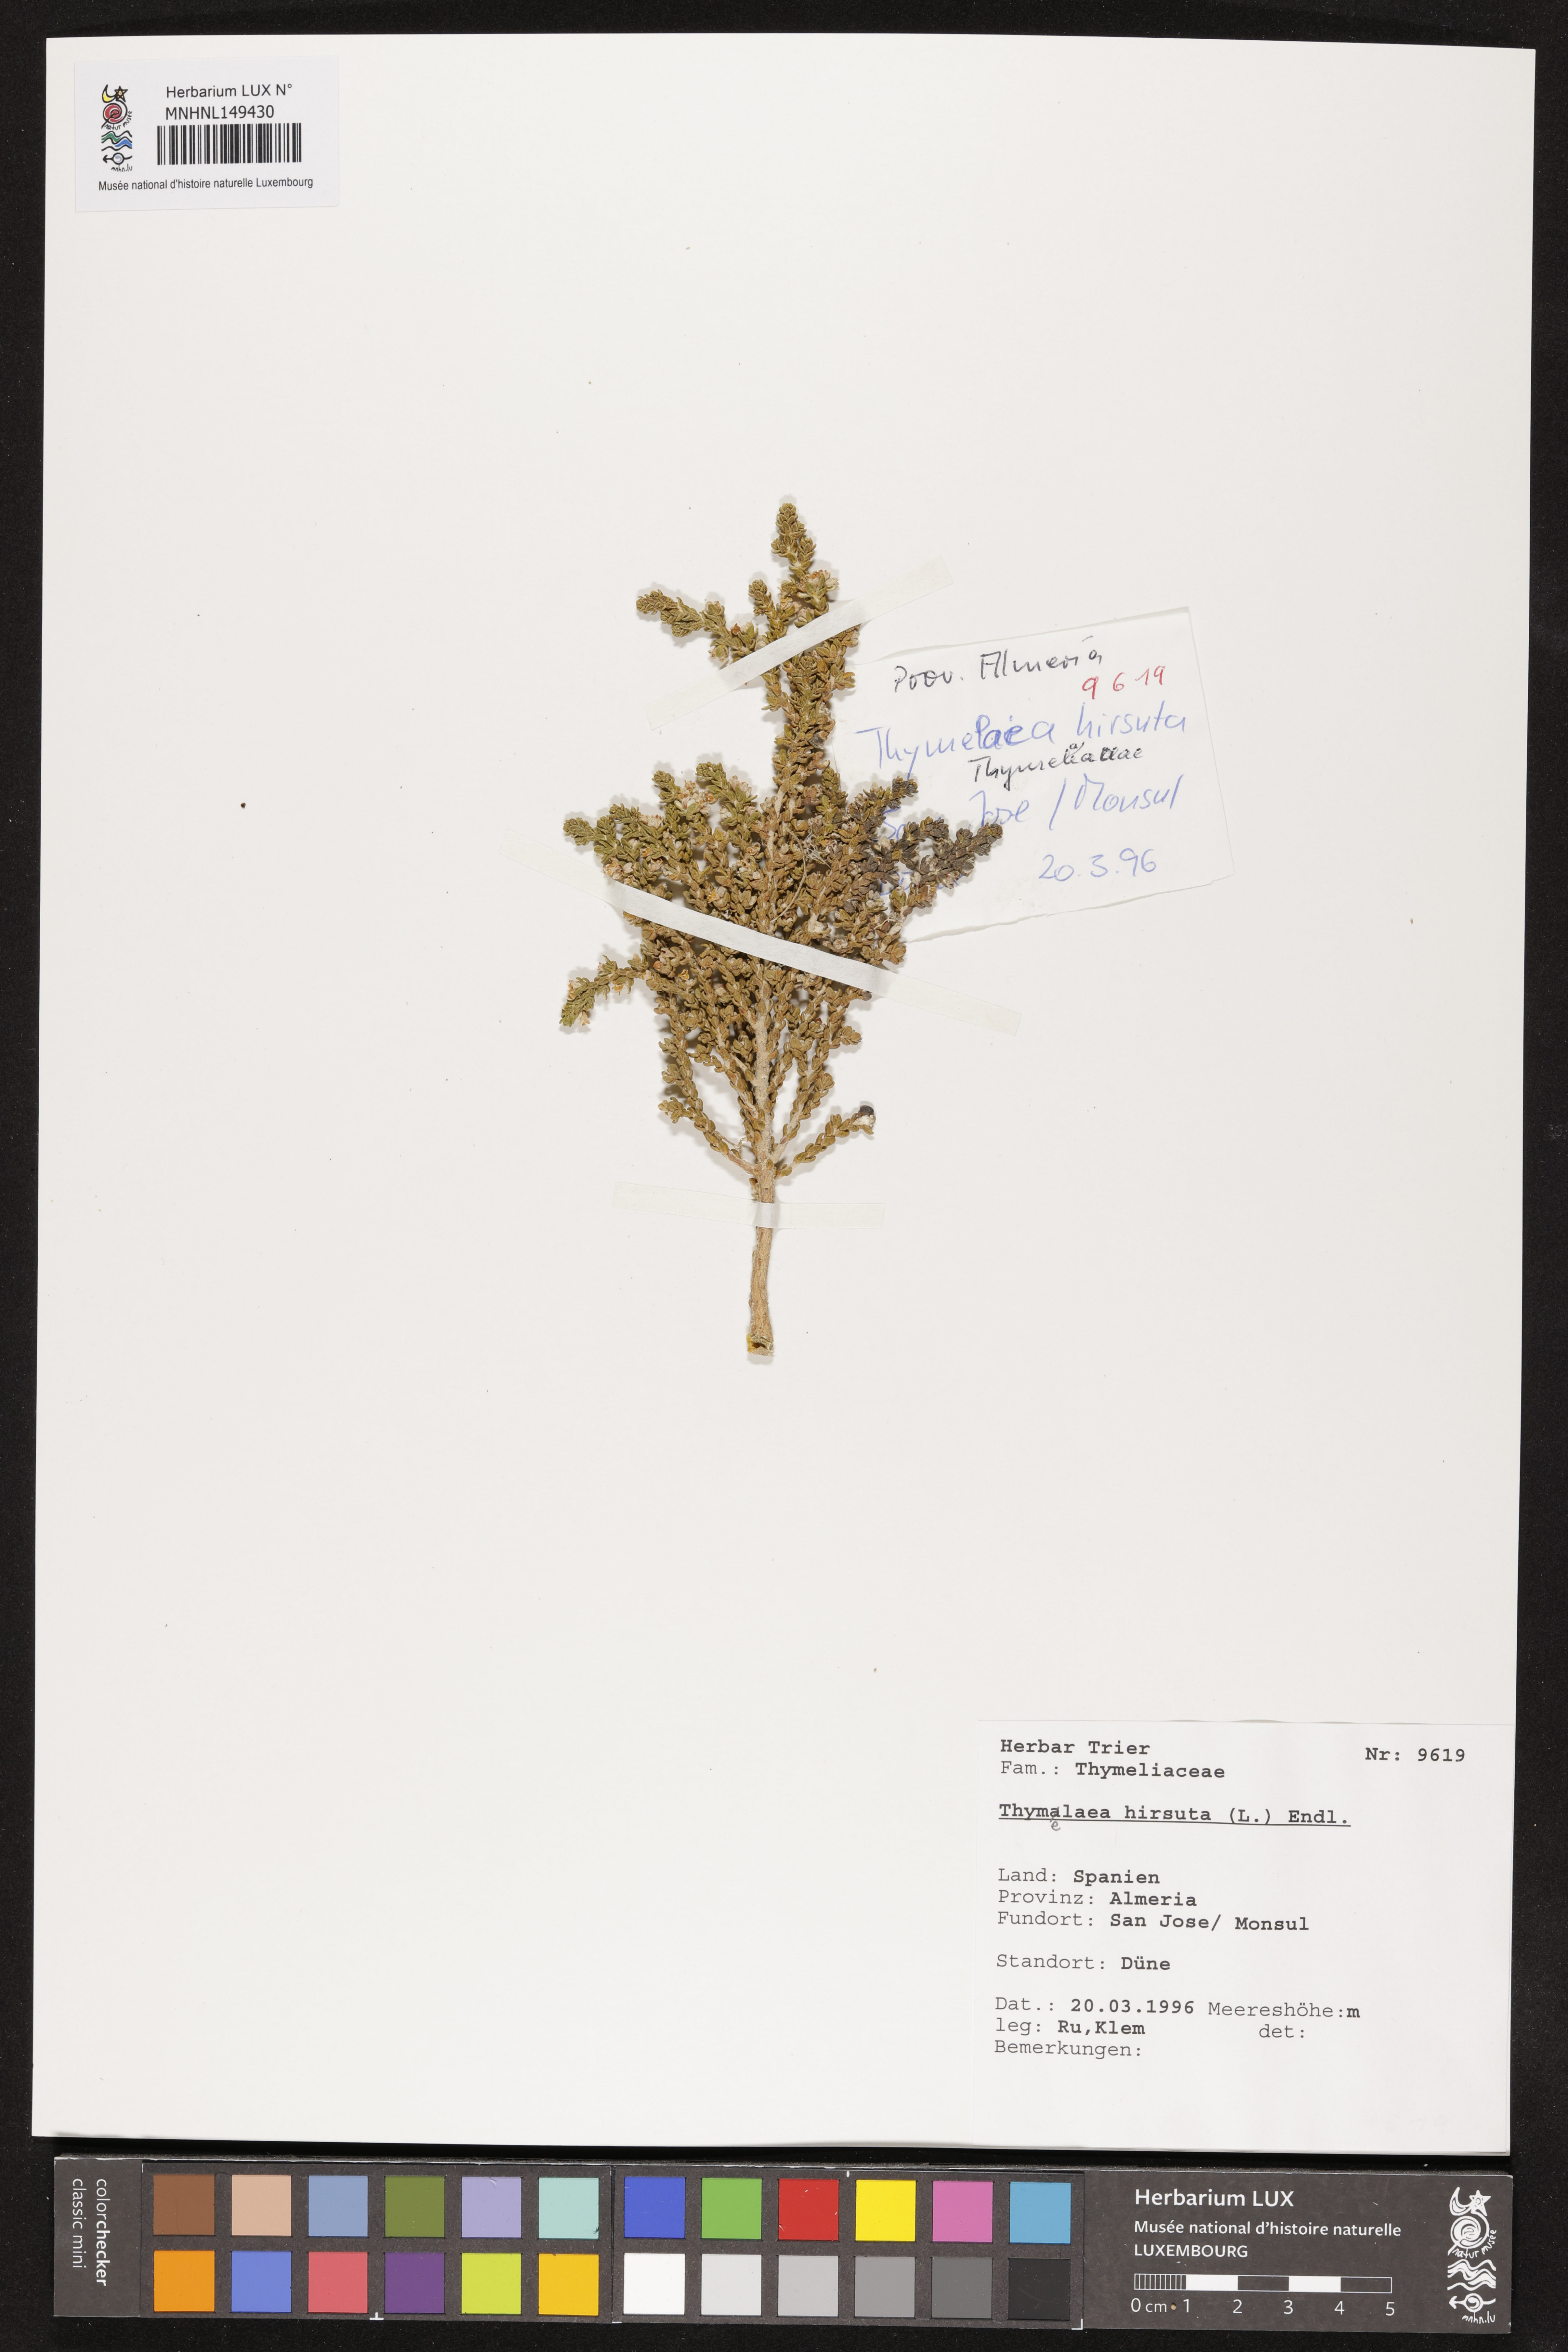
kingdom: Plantae
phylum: Tracheophyta
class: Magnoliopsida
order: Malvales
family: Thymelaeaceae
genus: Thymelaea
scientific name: Thymelaea hirsuta
